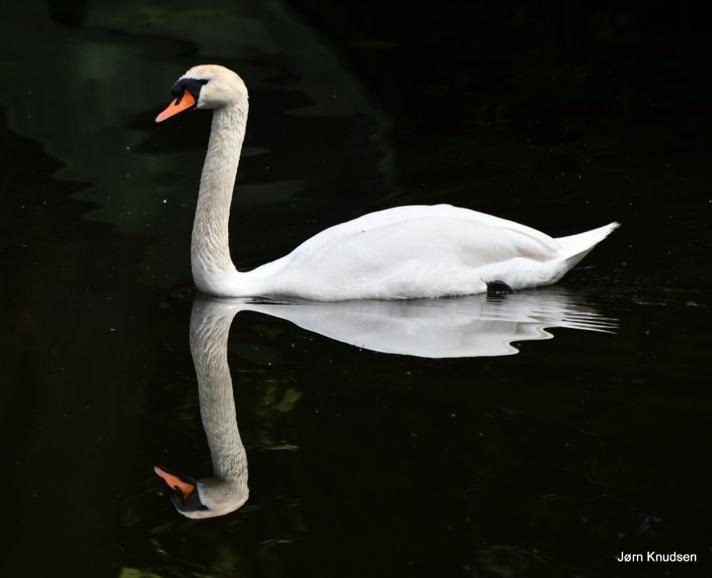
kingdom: Animalia
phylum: Chordata
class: Aves
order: Anseriformes
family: Anatidae
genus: Cygnus
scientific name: Cygnus olor
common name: Knopsvane
